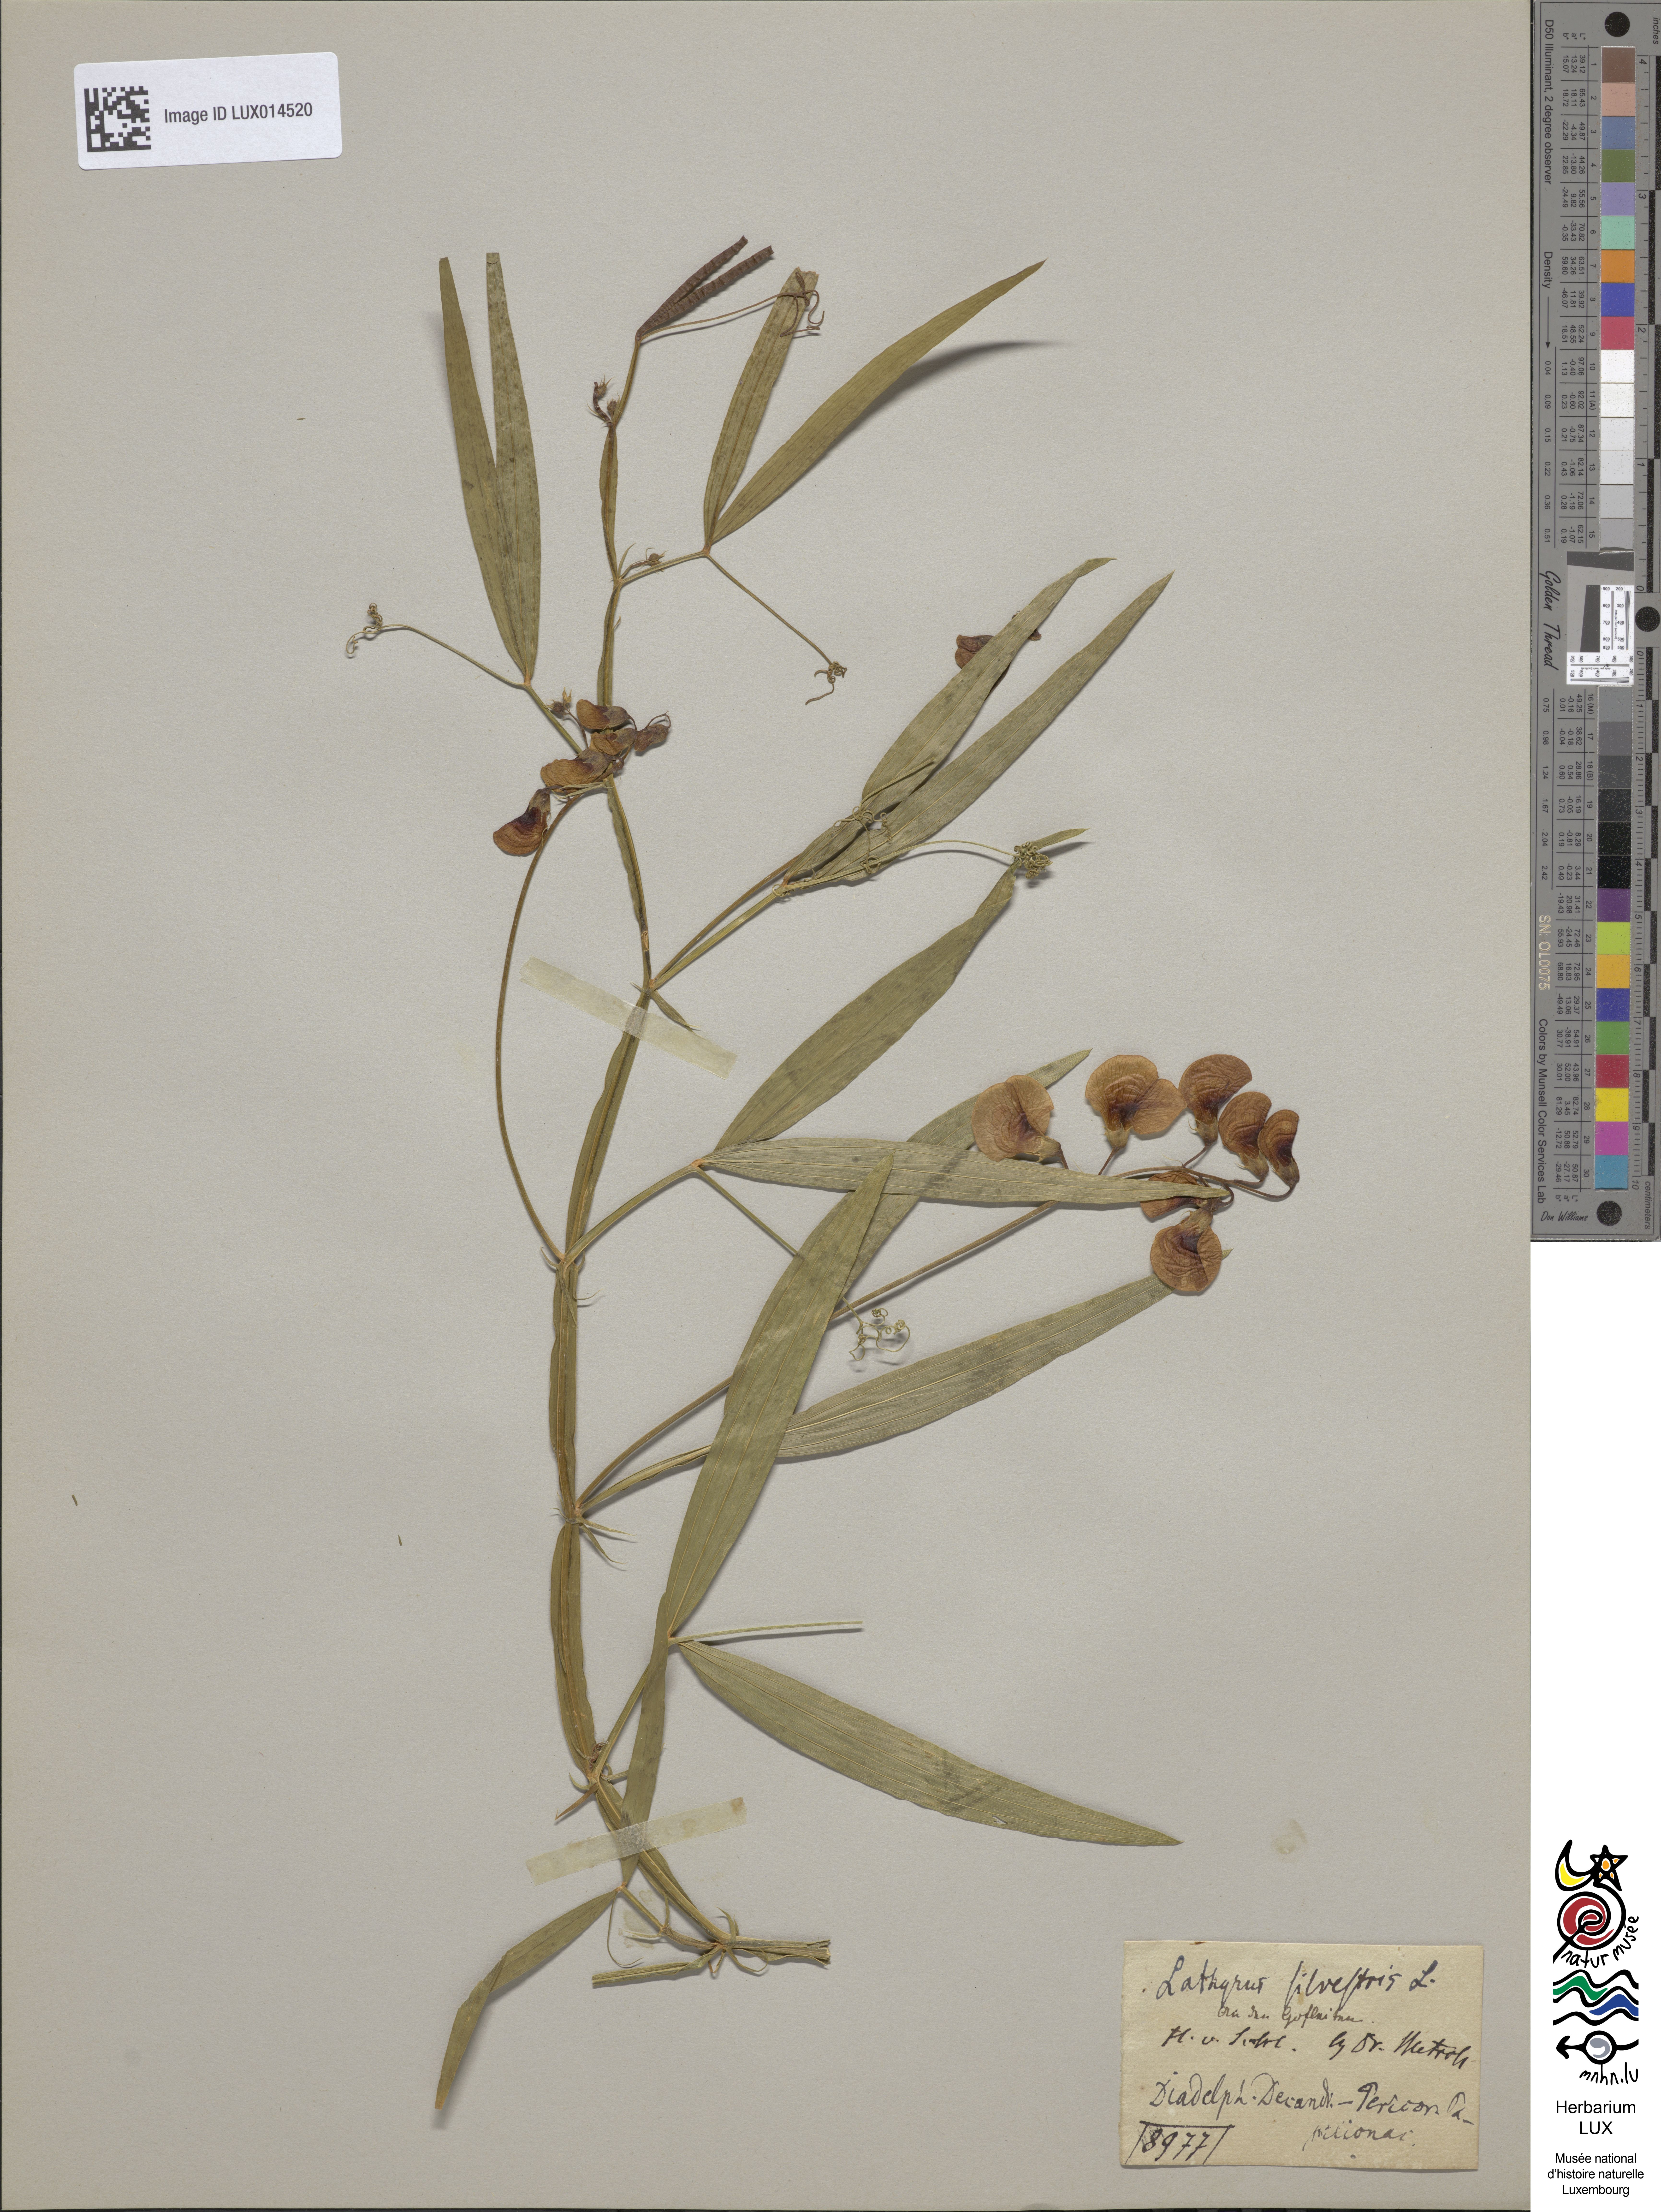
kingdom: Plantae
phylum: Tracheophyta
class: Magnoliopsida
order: Fabales
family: Fabaceae
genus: Lathyrus
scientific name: Lathyrus sylvestris
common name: Flat pea
